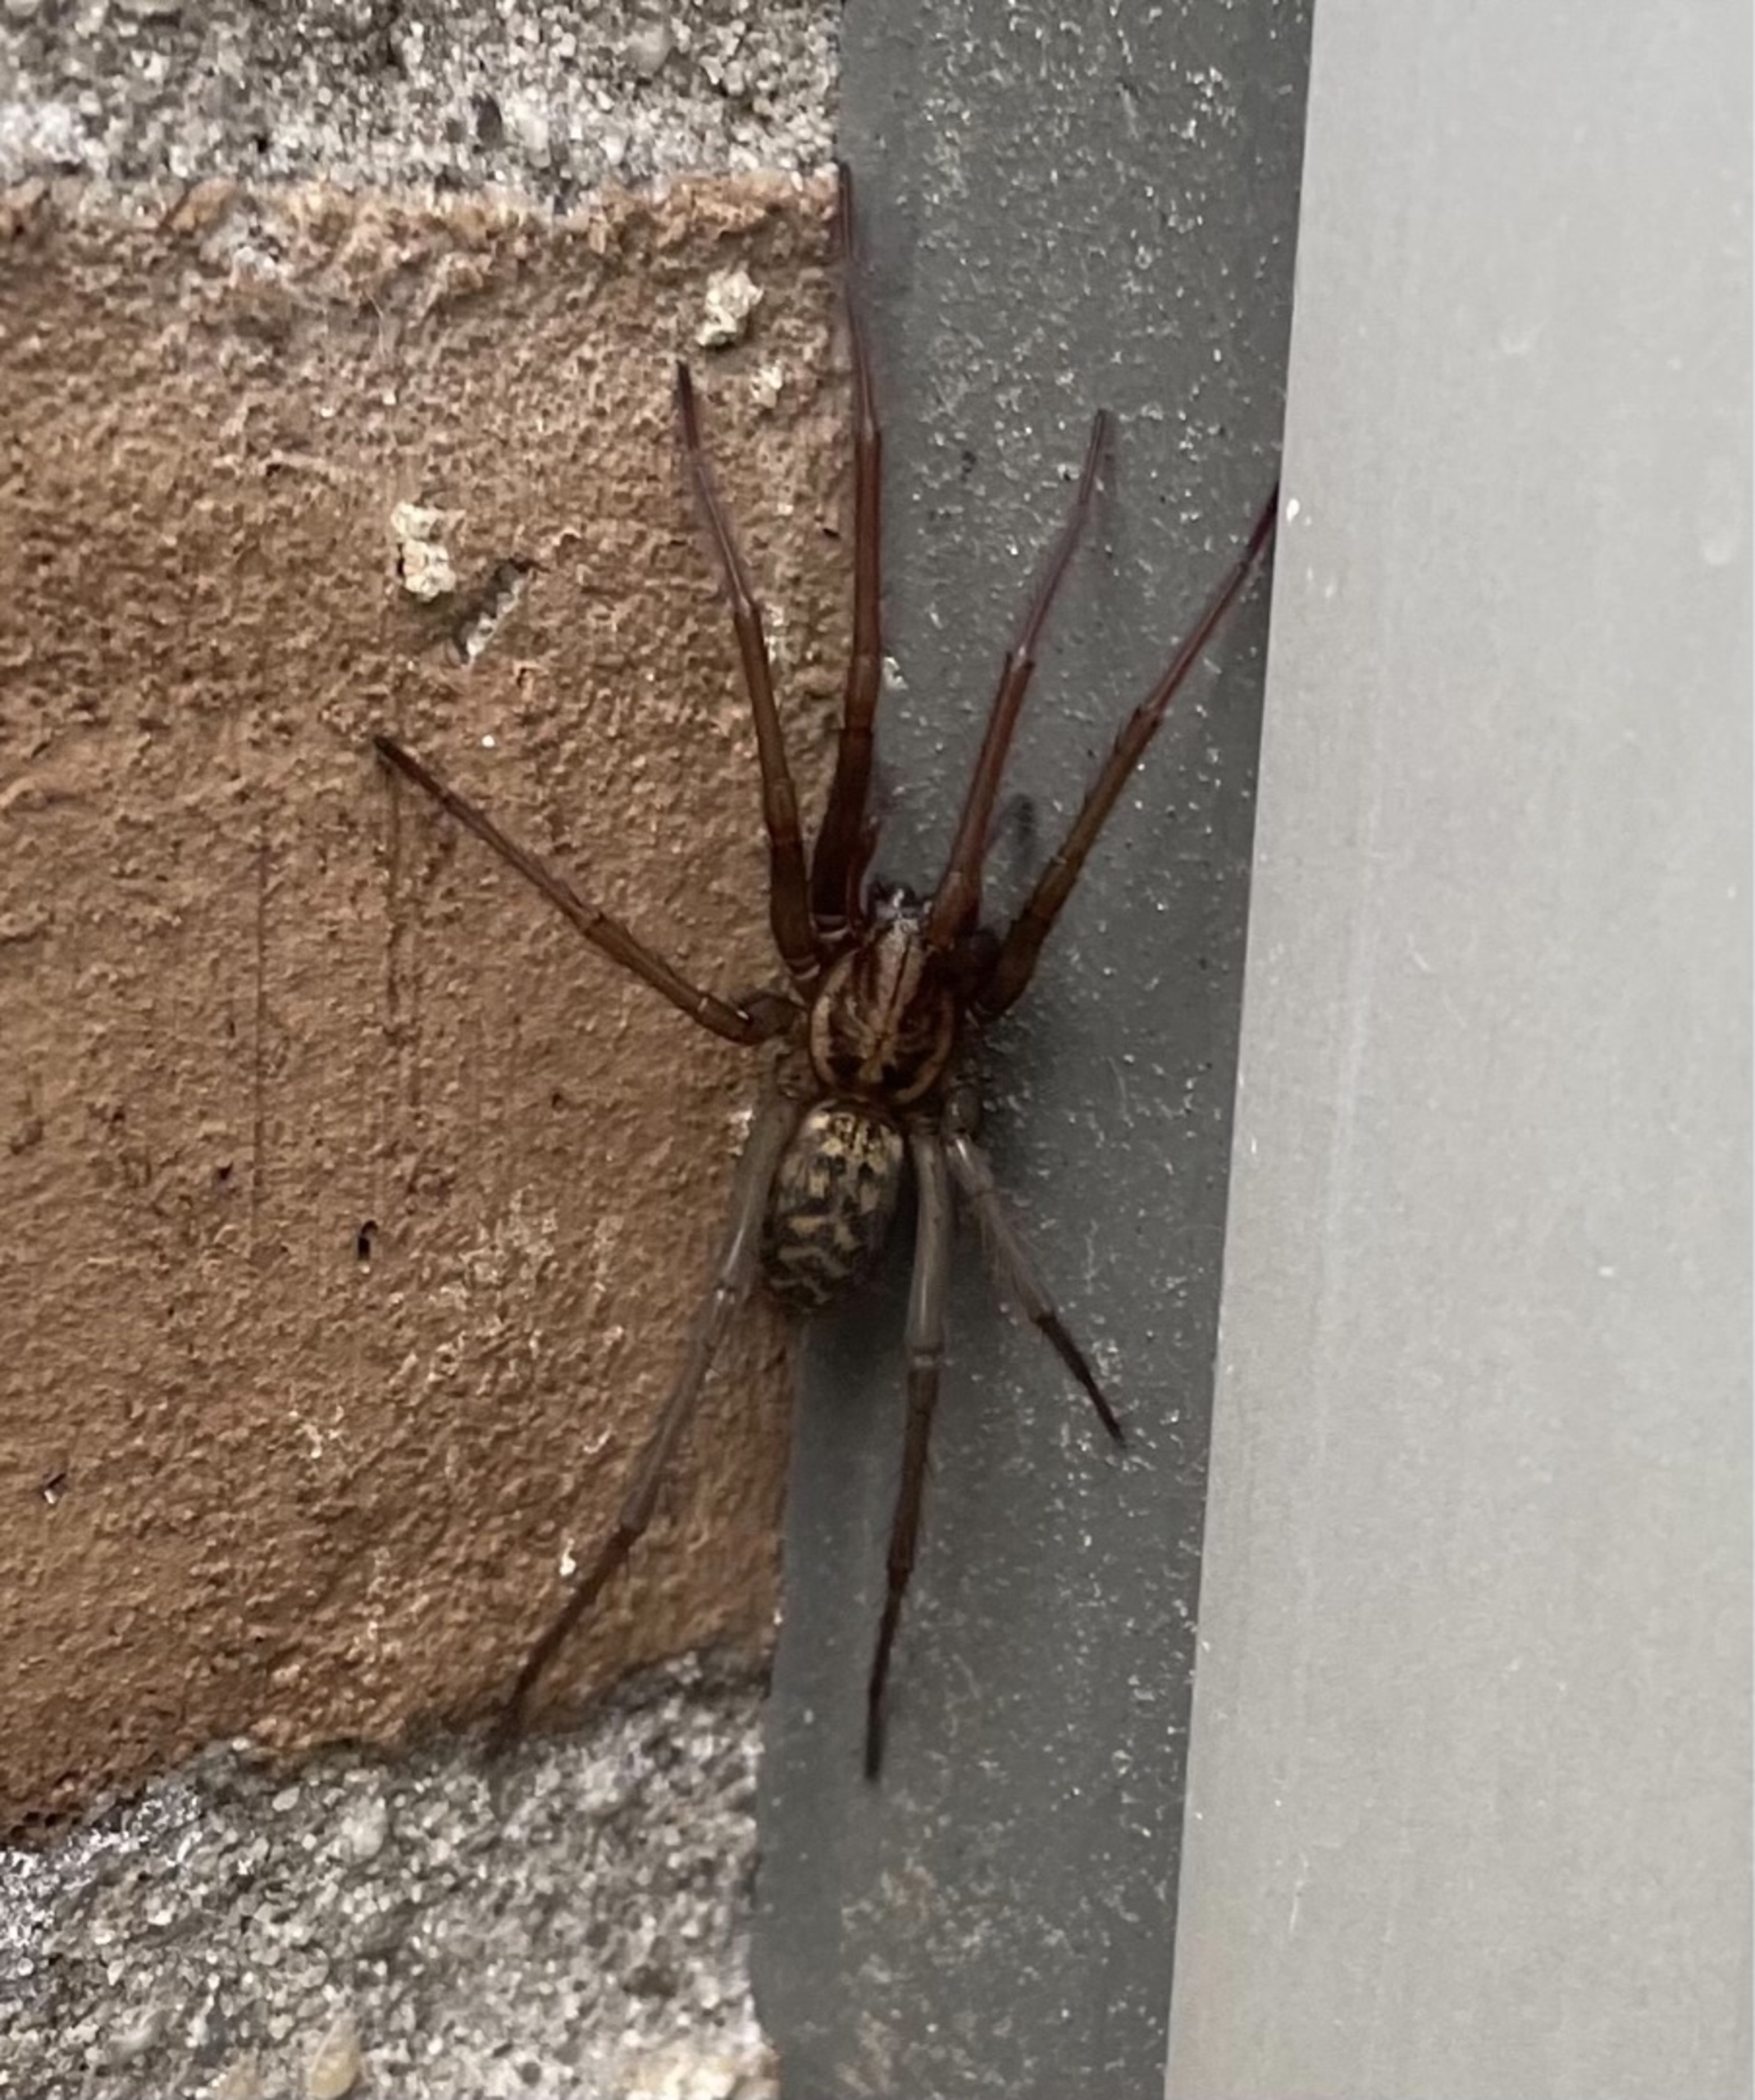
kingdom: Animalia
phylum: Arthropoda
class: Arachnida
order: Araneae
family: Agelenidae
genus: Eratigena
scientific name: Eratigena atrica
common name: Stor husedderkop
